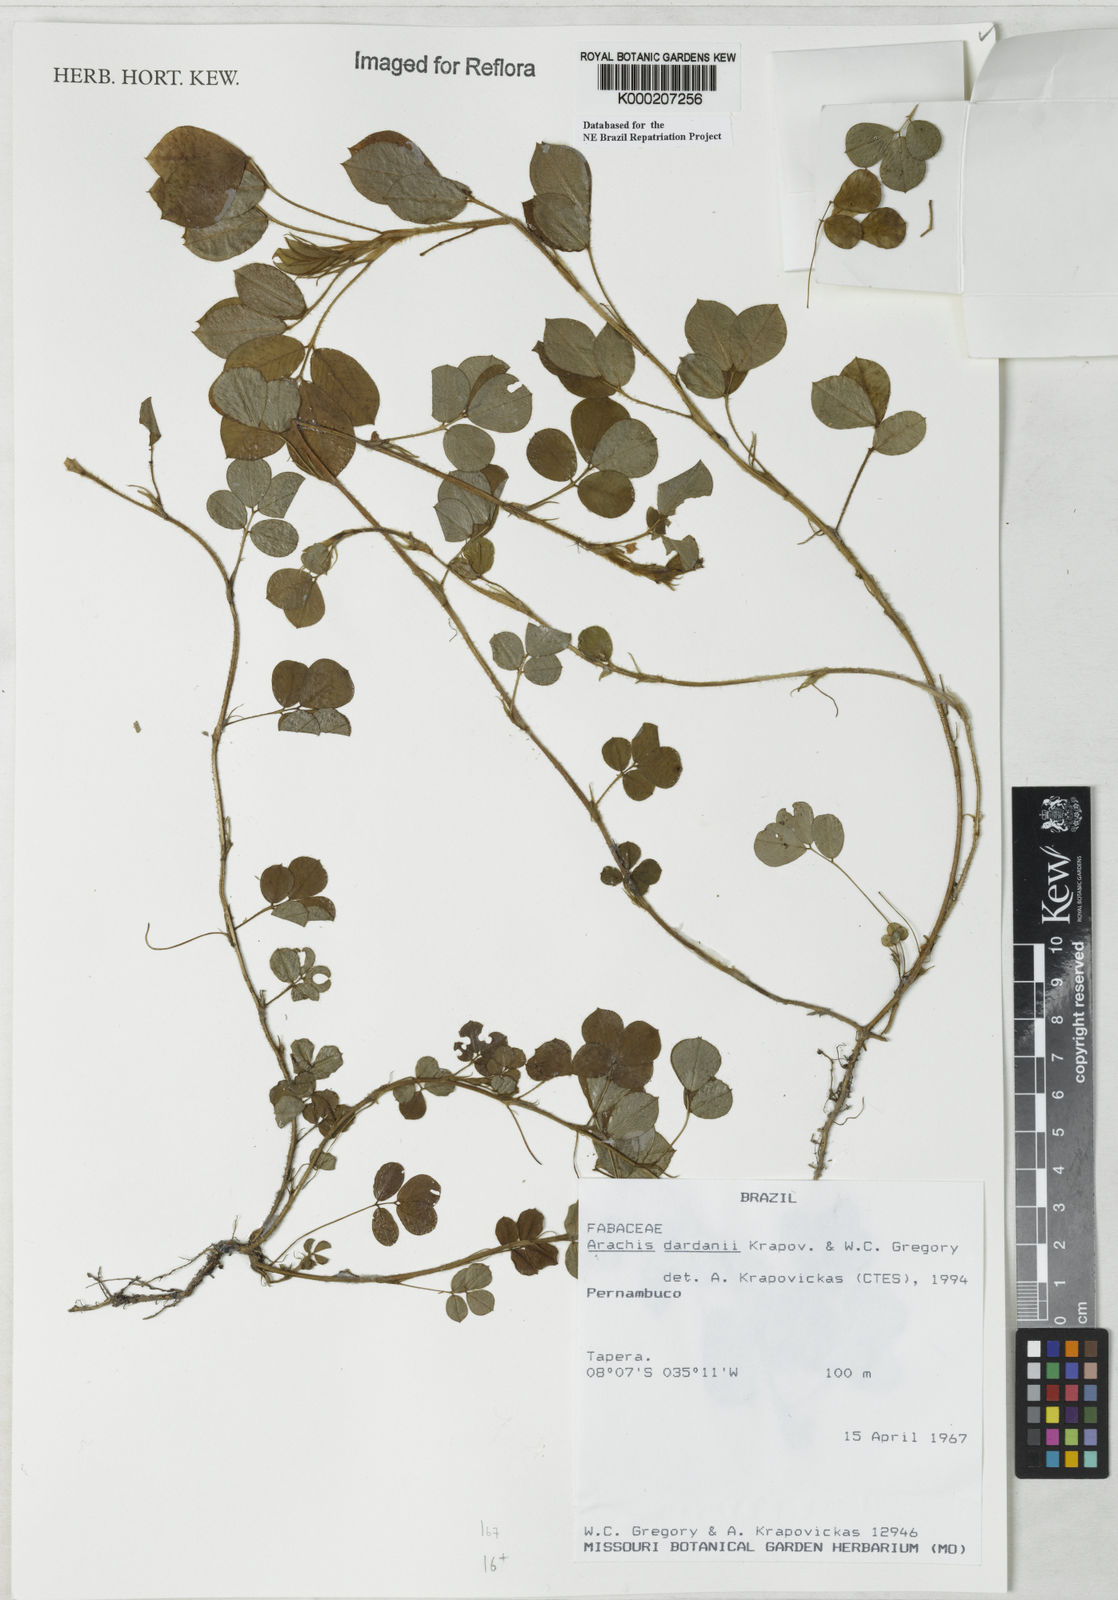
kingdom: Plantae
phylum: Tracheophyta
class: Magnoliopsida
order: Fabales
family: Fabaceae
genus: Arachis
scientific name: Arachis
